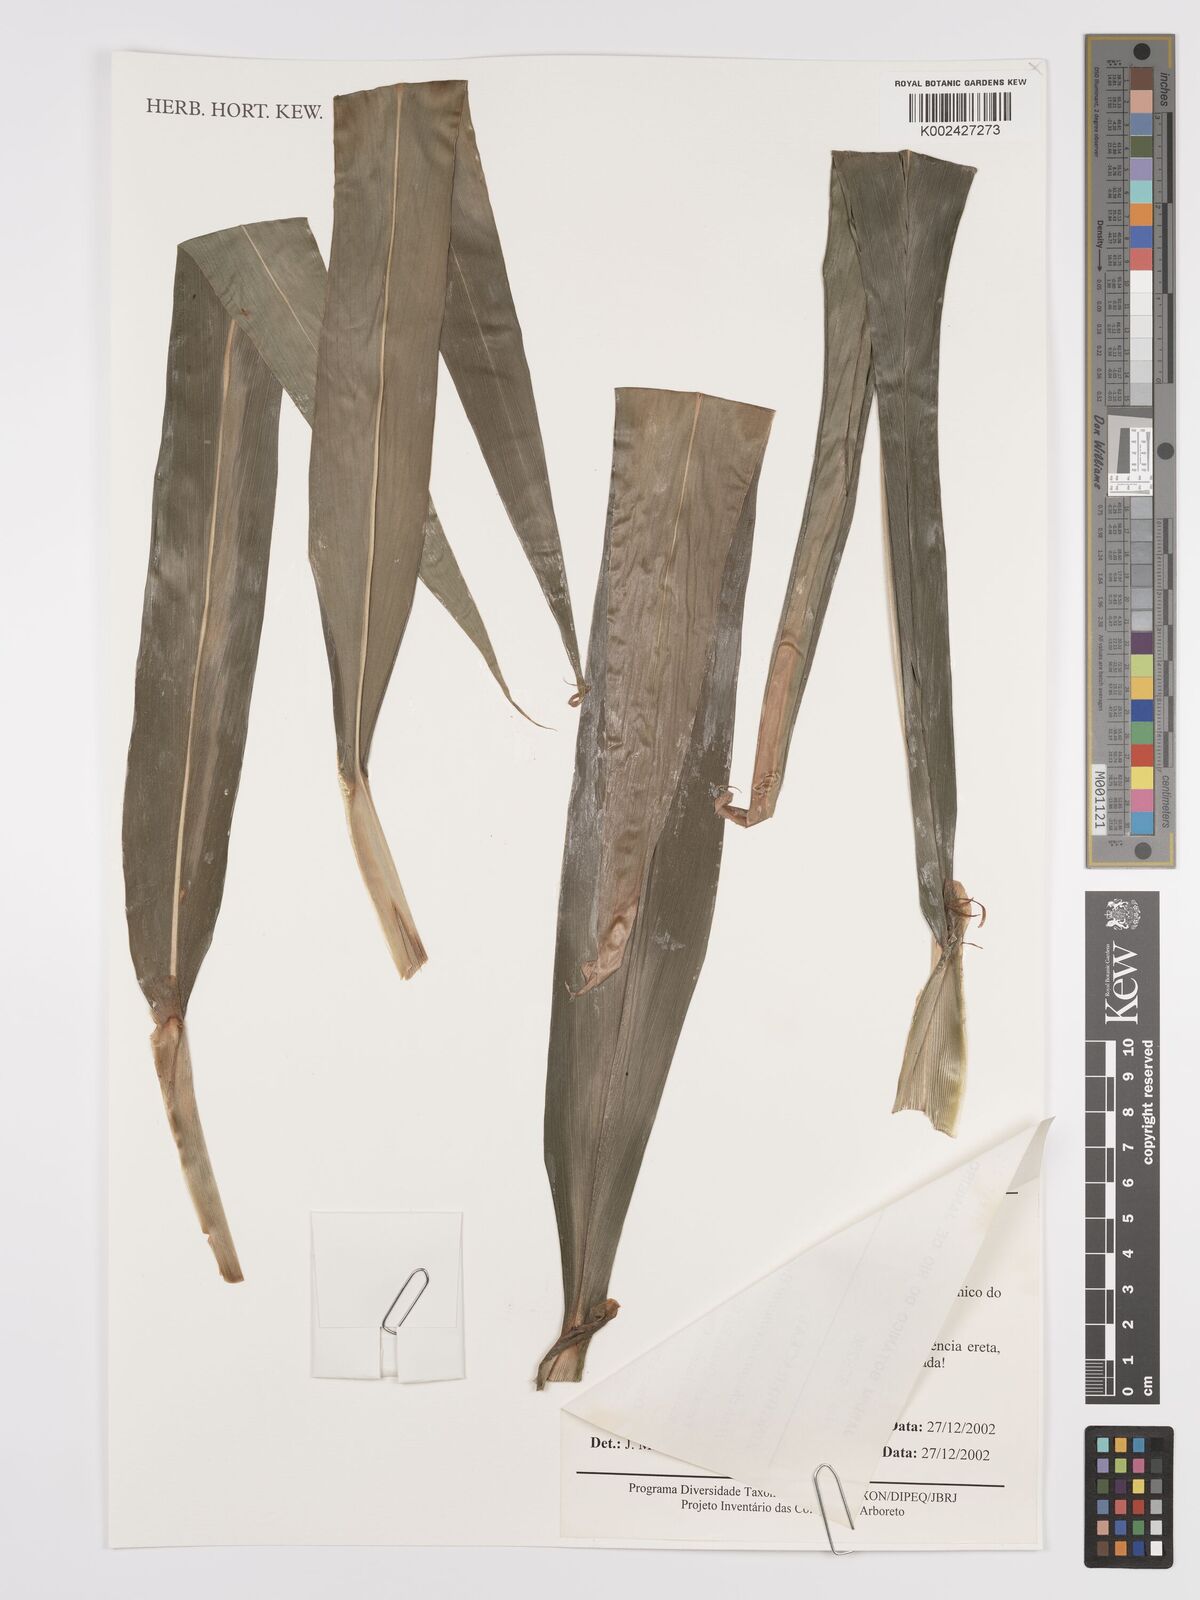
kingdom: Plantae
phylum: Tracheophyta
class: Liliopsida
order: Zingiberales
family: Zingiberaceae
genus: Hedychium
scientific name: Hedychium coccineum
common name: Red ginger-lily
